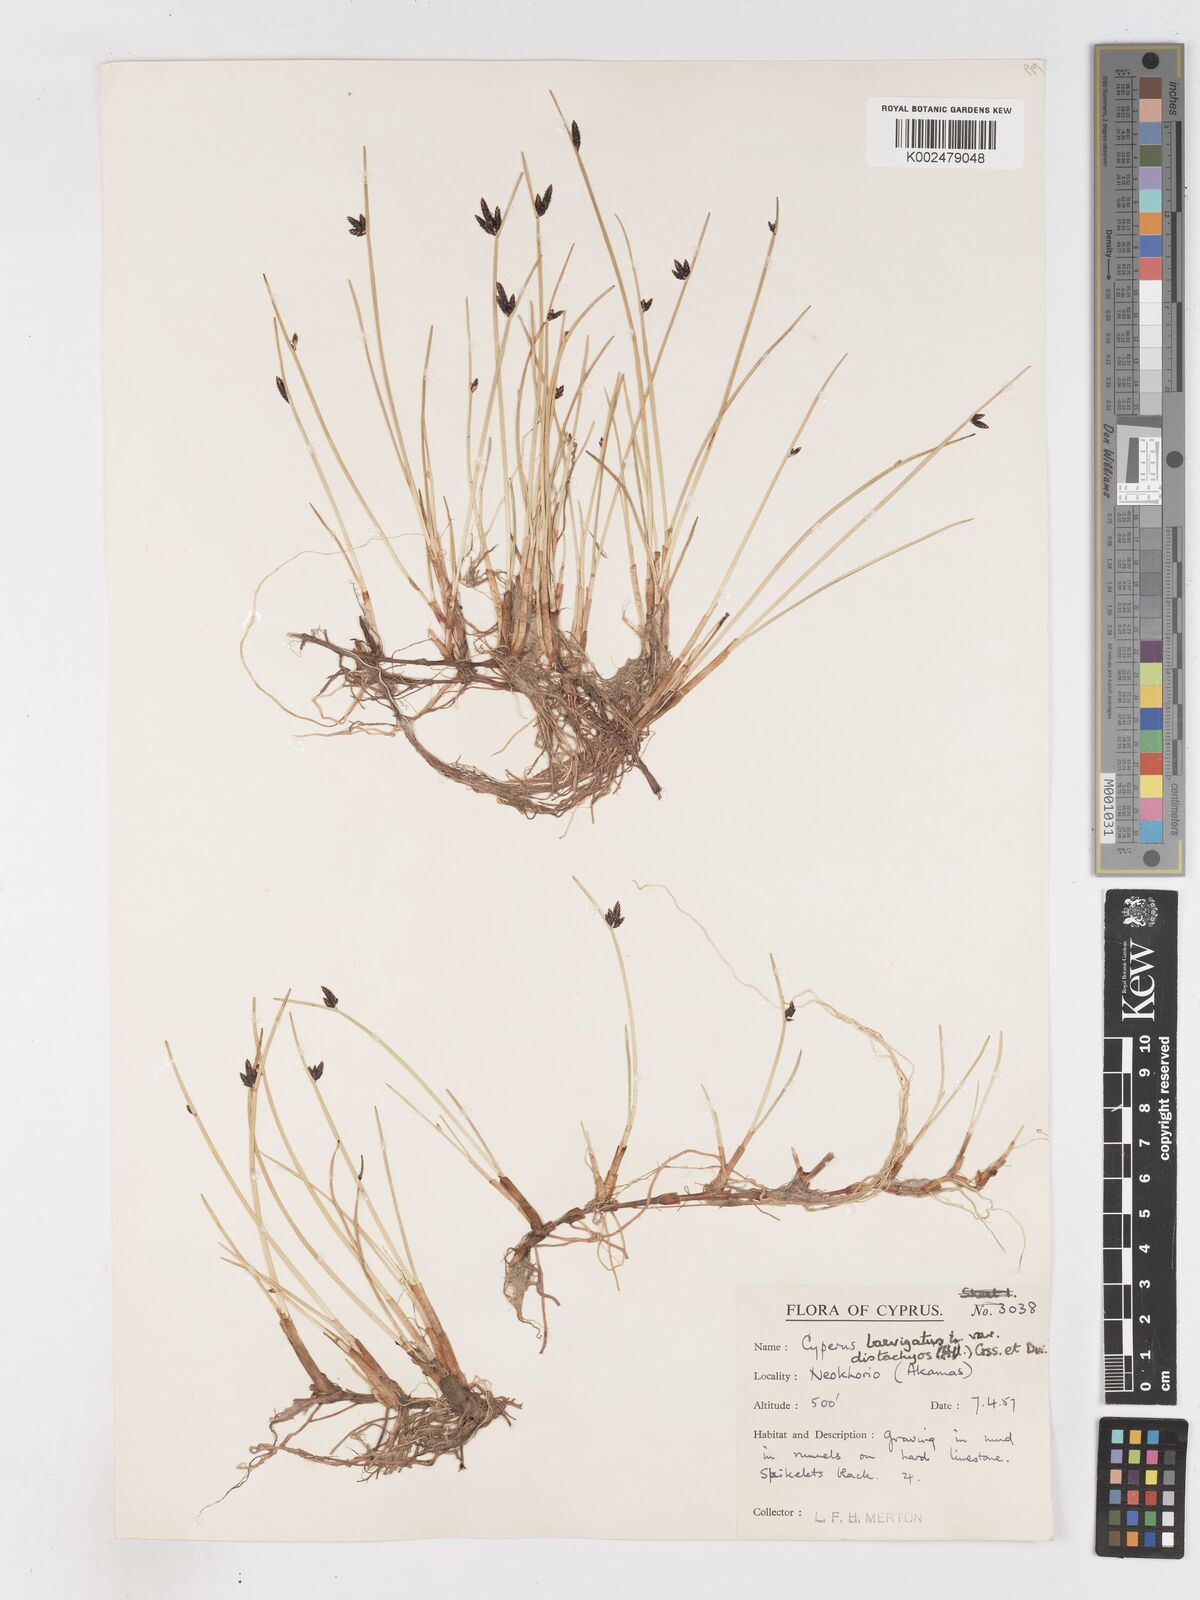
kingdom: Plantae
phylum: Tracheophyta
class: Liliopsida
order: Poales
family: Cyperaceae
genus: Cyperus
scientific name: Cyperus laevigatus
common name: Smooth flat sedge
